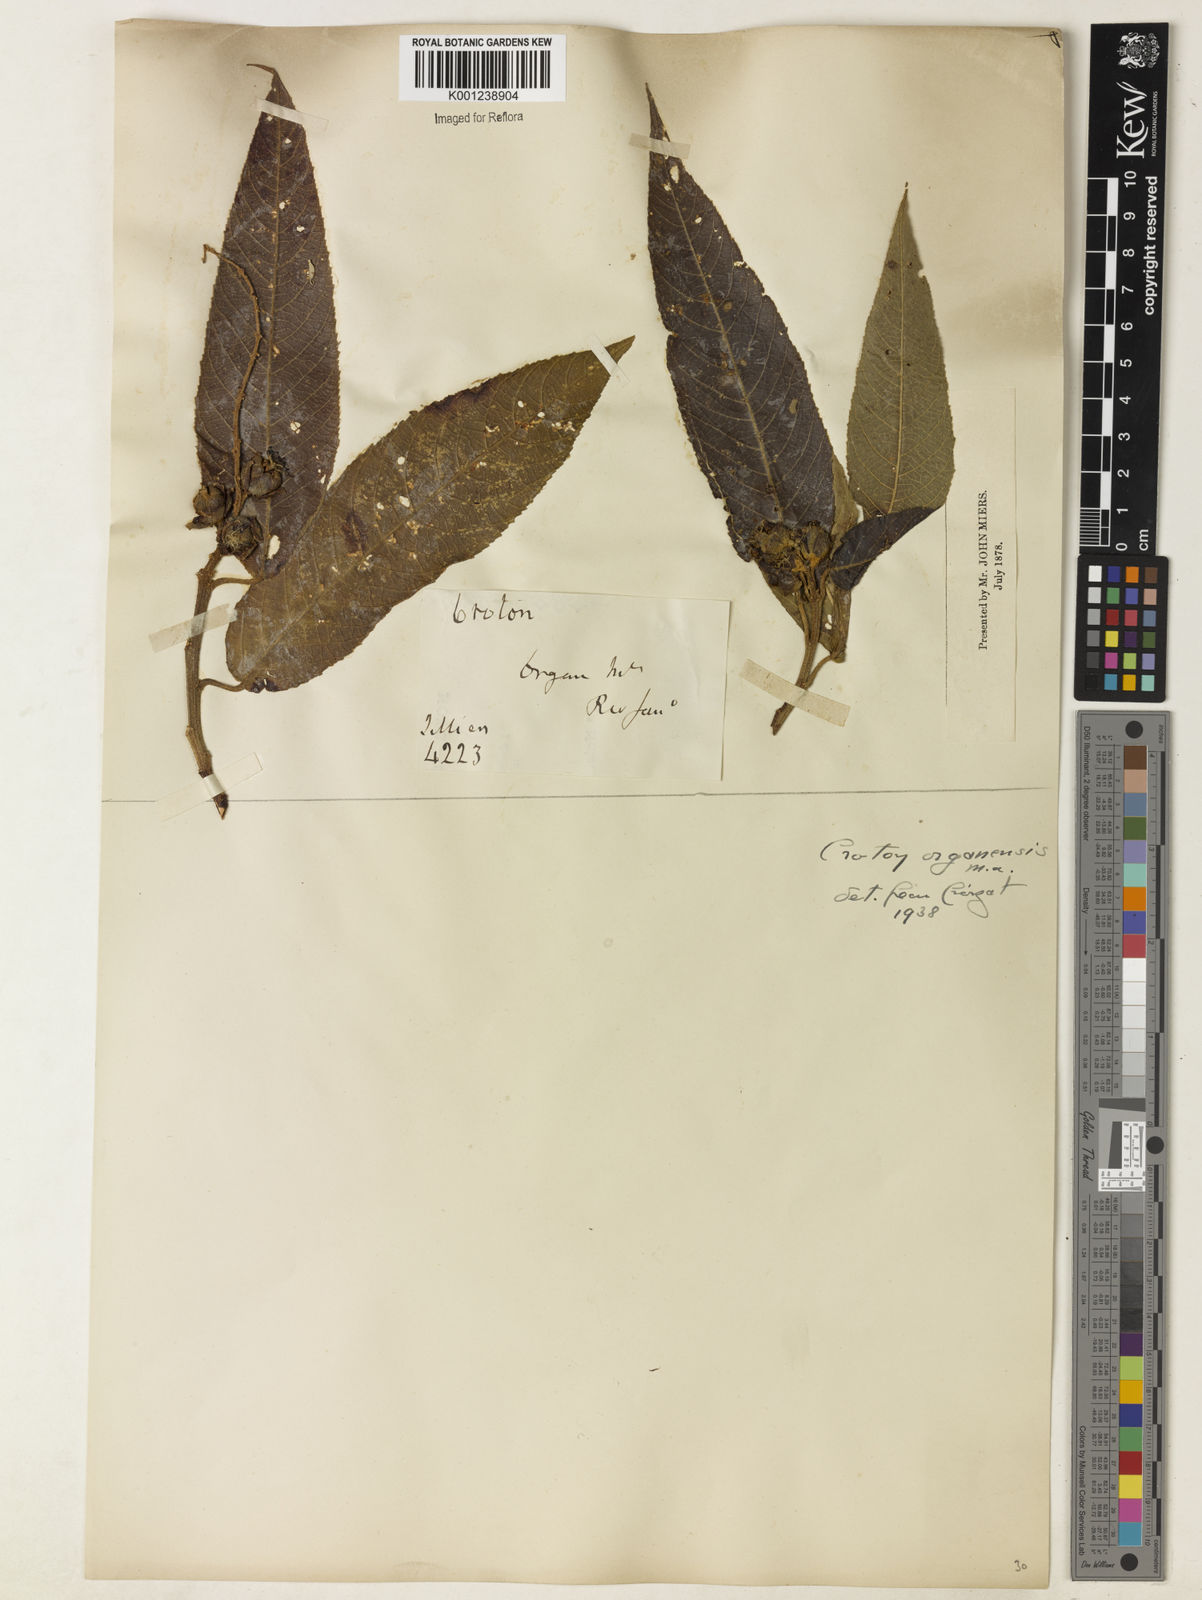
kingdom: Plantae
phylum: Tracheophyta
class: Magnoliopsida
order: Malpighiales
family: Euphorbiaceae
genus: Croton
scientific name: Croton organensis
